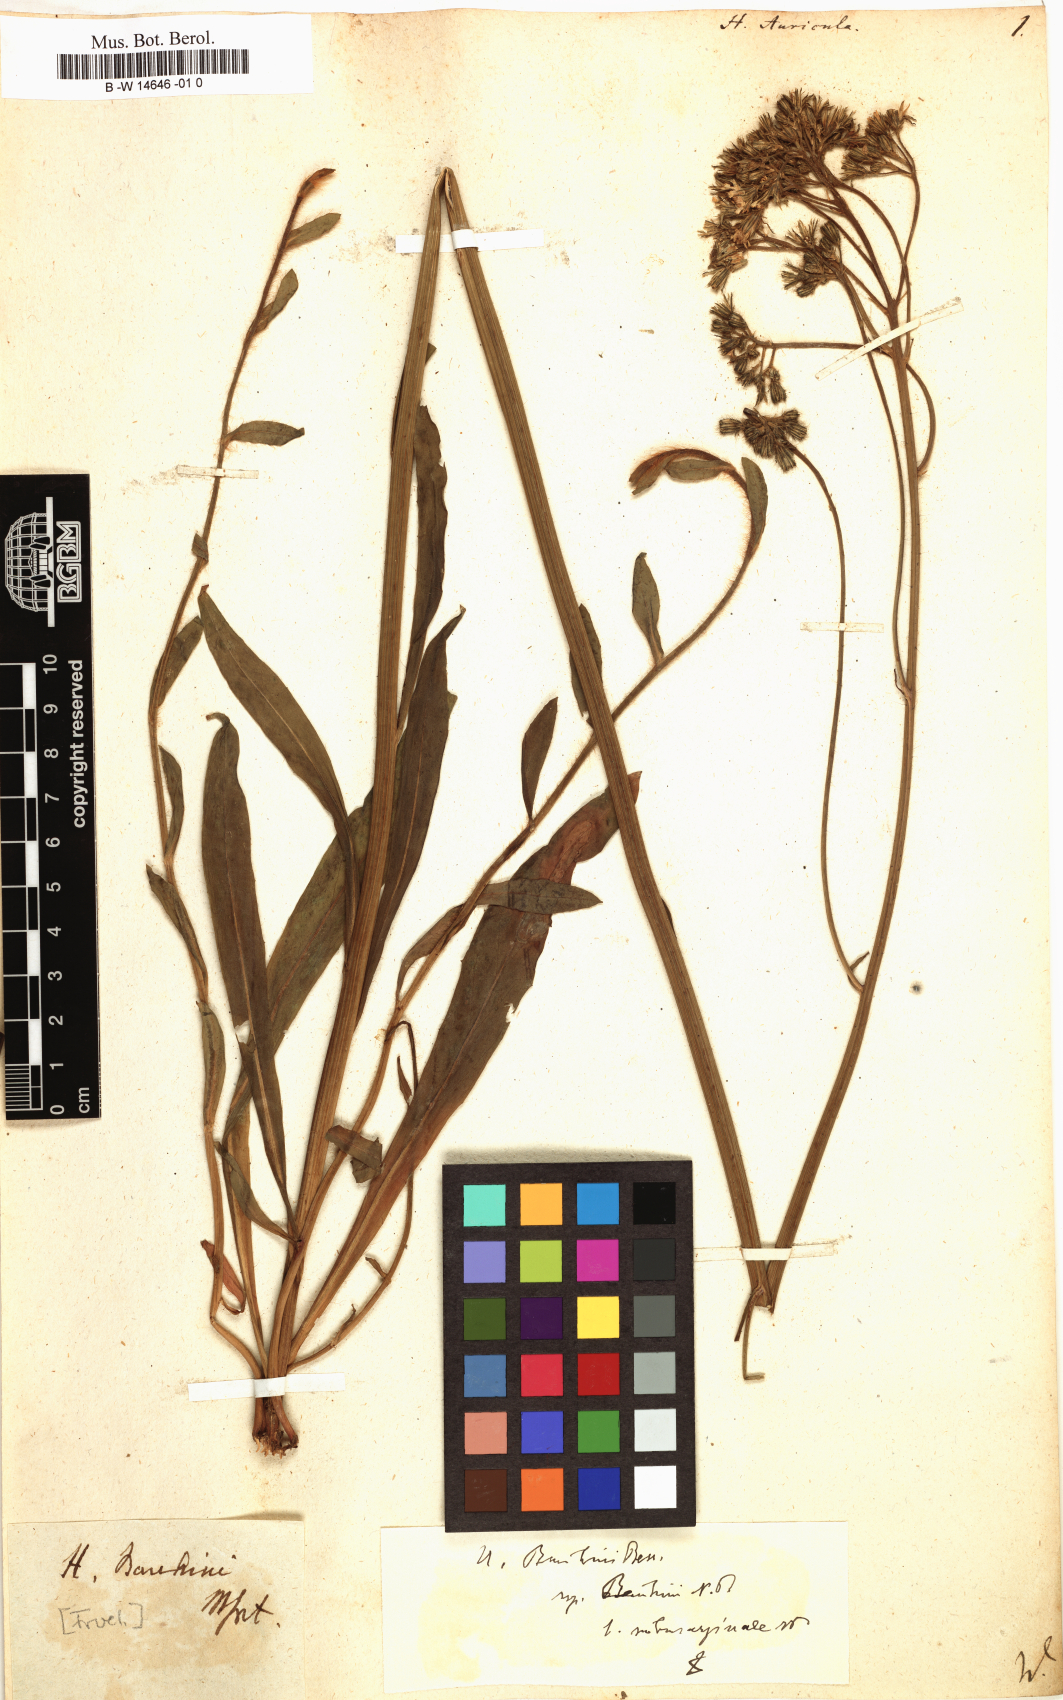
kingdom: Plantae
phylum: Tracheophyta
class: Magnoliopsida
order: Asterales
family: Asteraceae
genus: Hieracium
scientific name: Hieracium auricula
